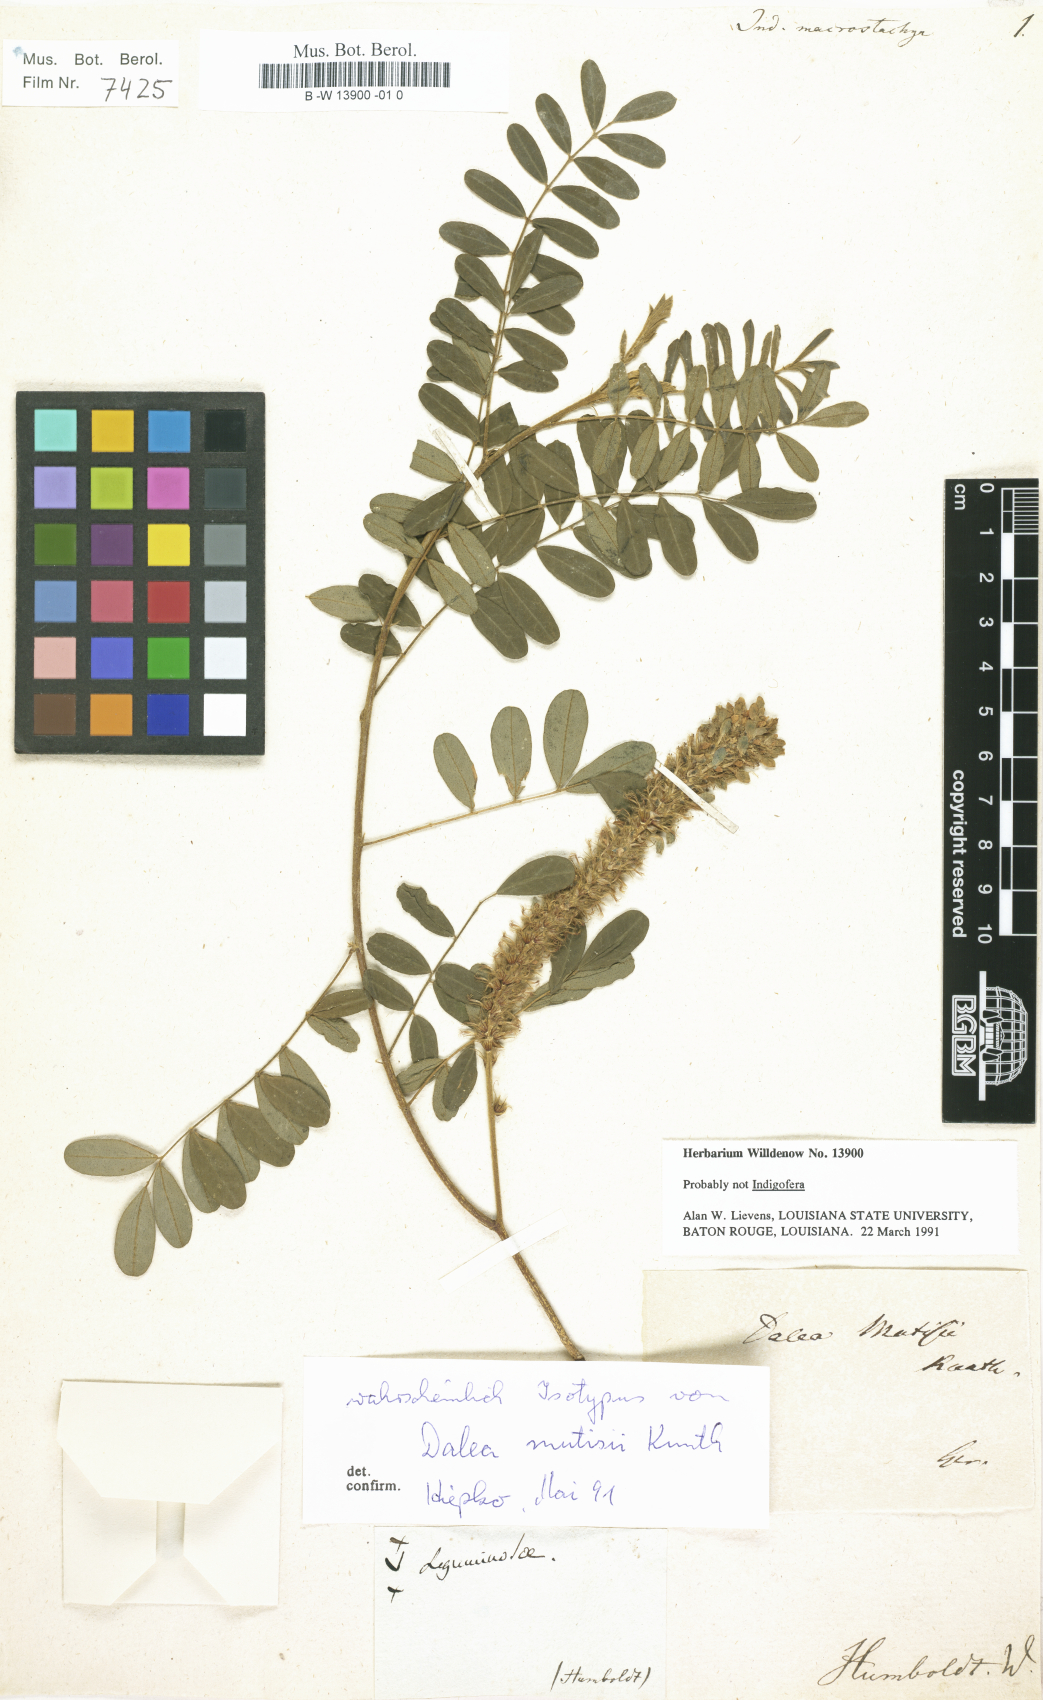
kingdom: Plantae
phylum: Tracheophyta
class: Magnoliopsida
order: Fabales
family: Fabaceae
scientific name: Fabaceae
